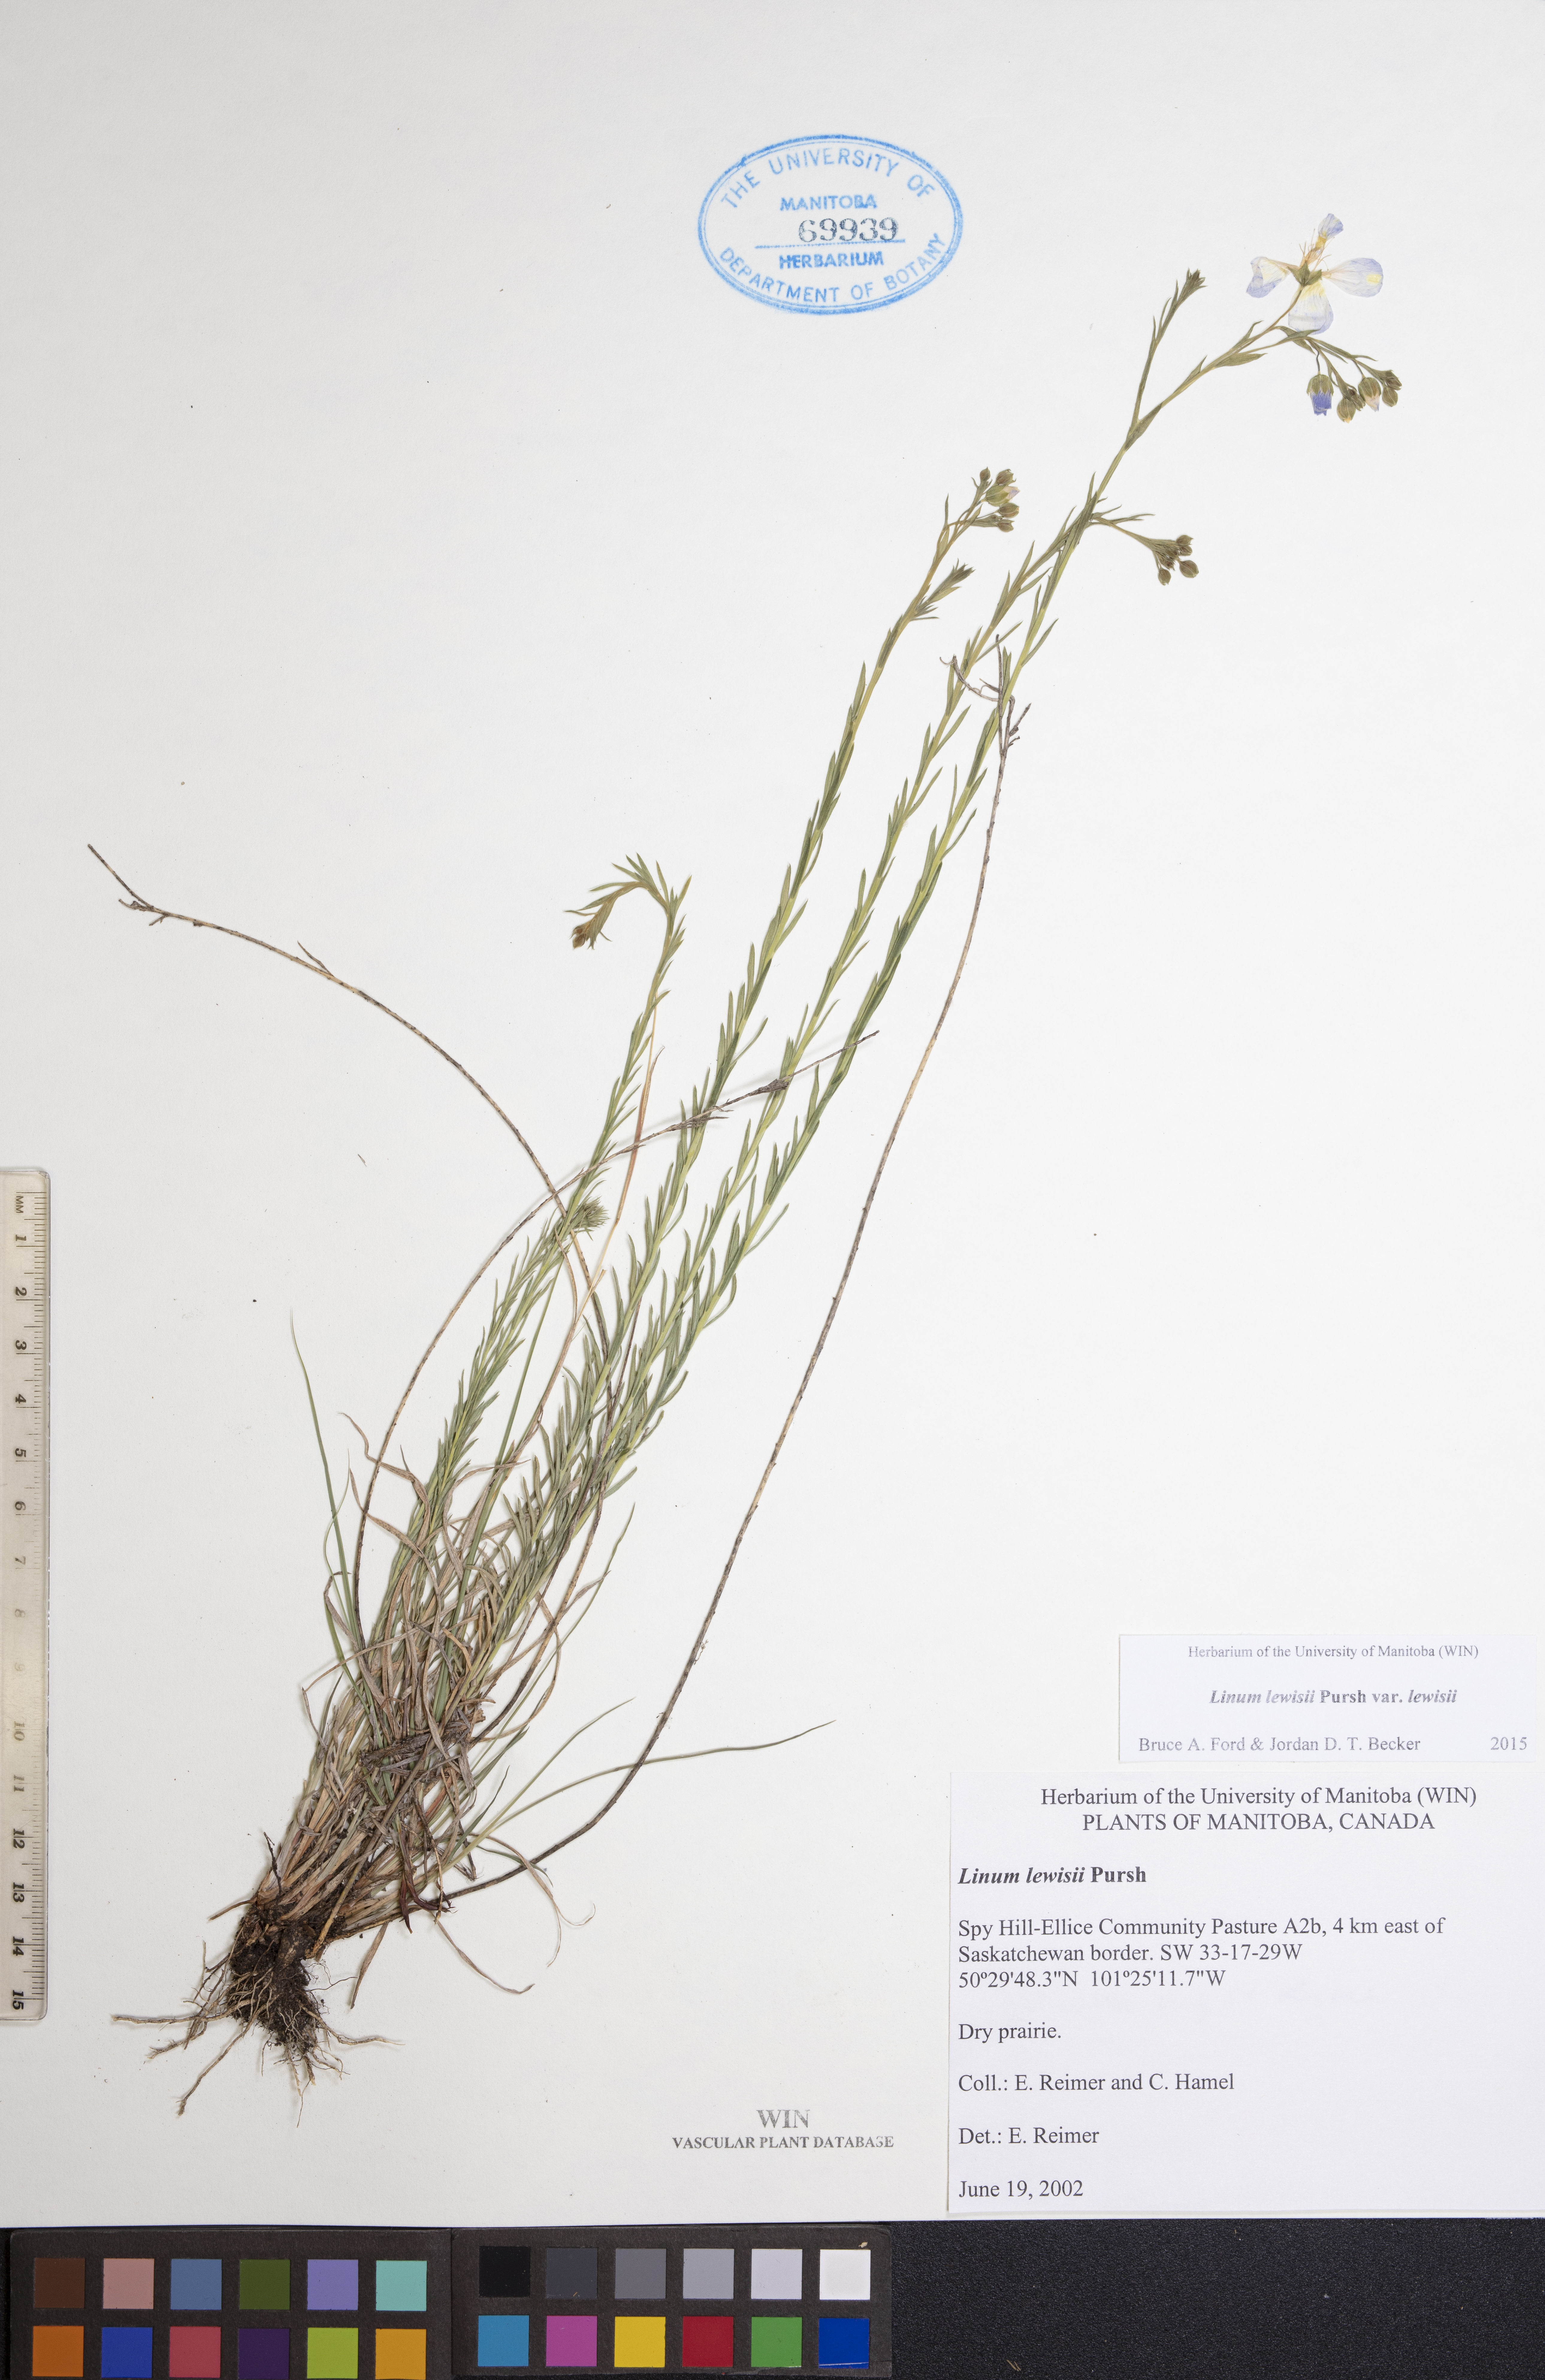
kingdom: Plantae
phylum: Tracheophyta
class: Magnoliopsida
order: Malpighiales
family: Linaceae
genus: Linum
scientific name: Linum lewisii
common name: Prairie flax
